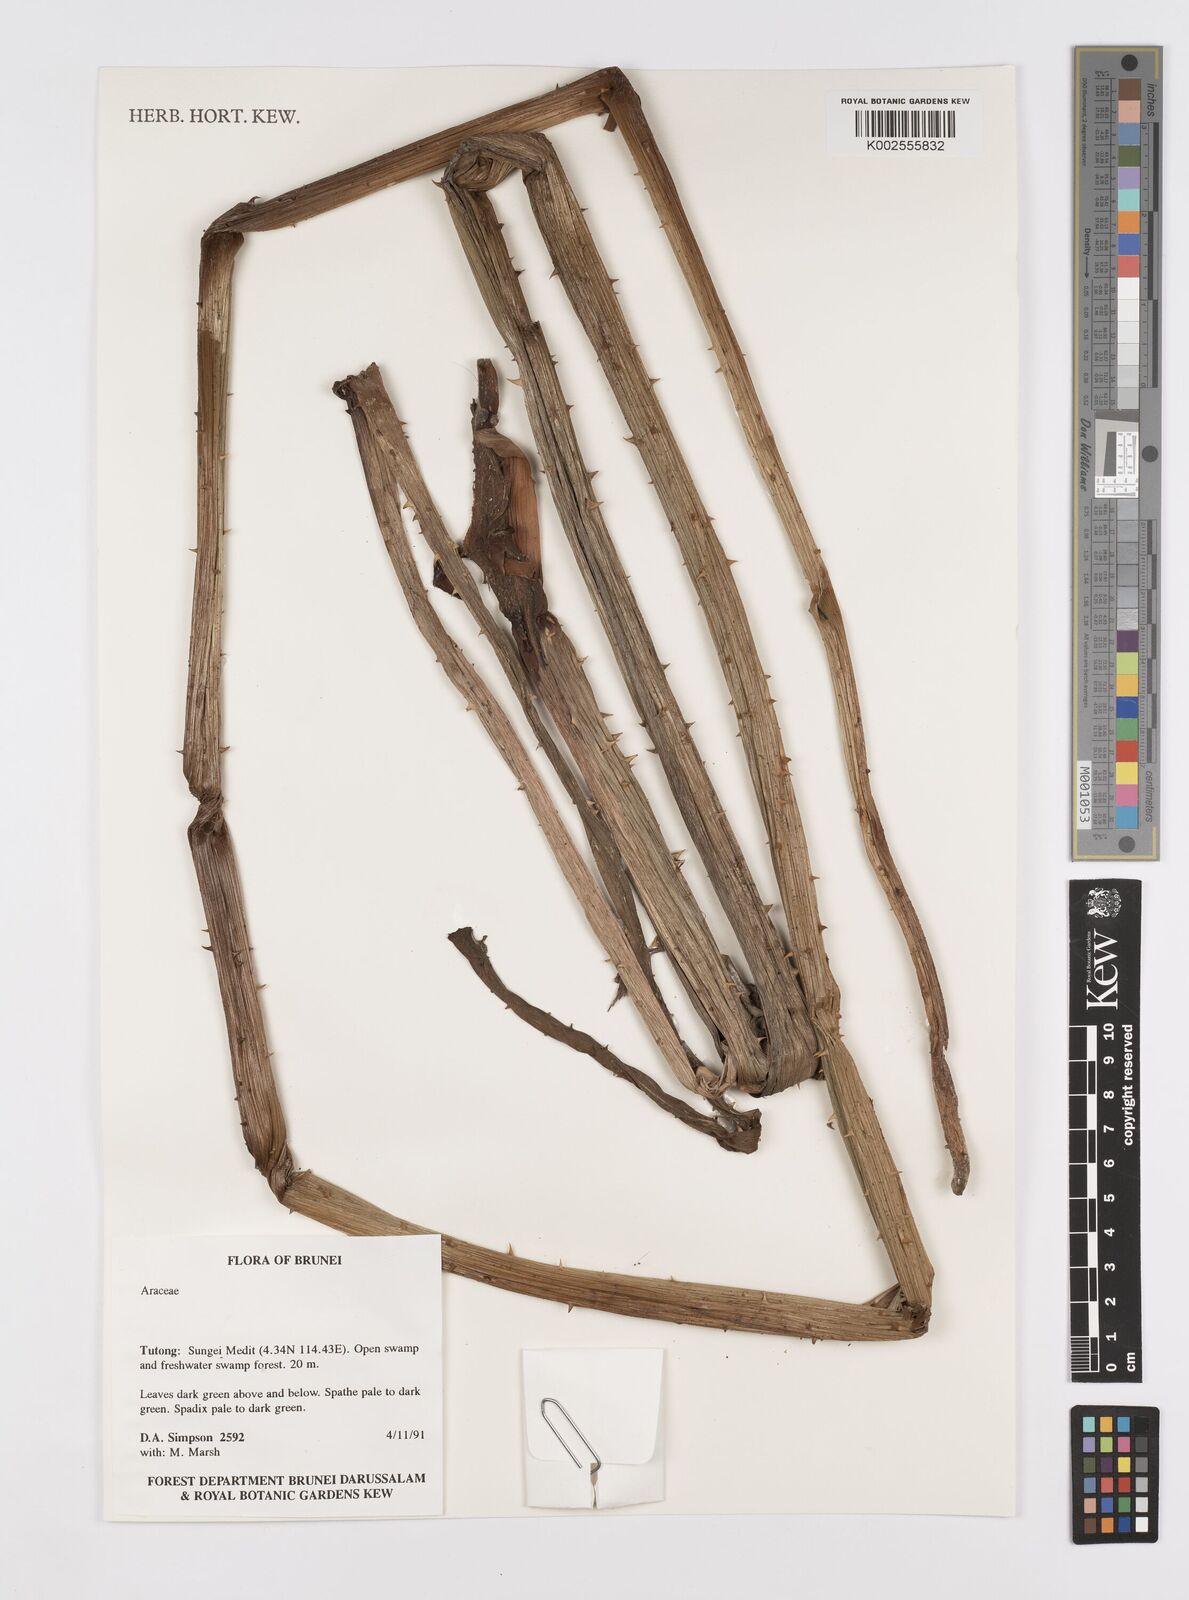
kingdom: Plantae
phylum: Tracheophyta
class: Liliopsida
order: Alismatales
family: Araceae
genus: Lasia
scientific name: Lasia spinosa
